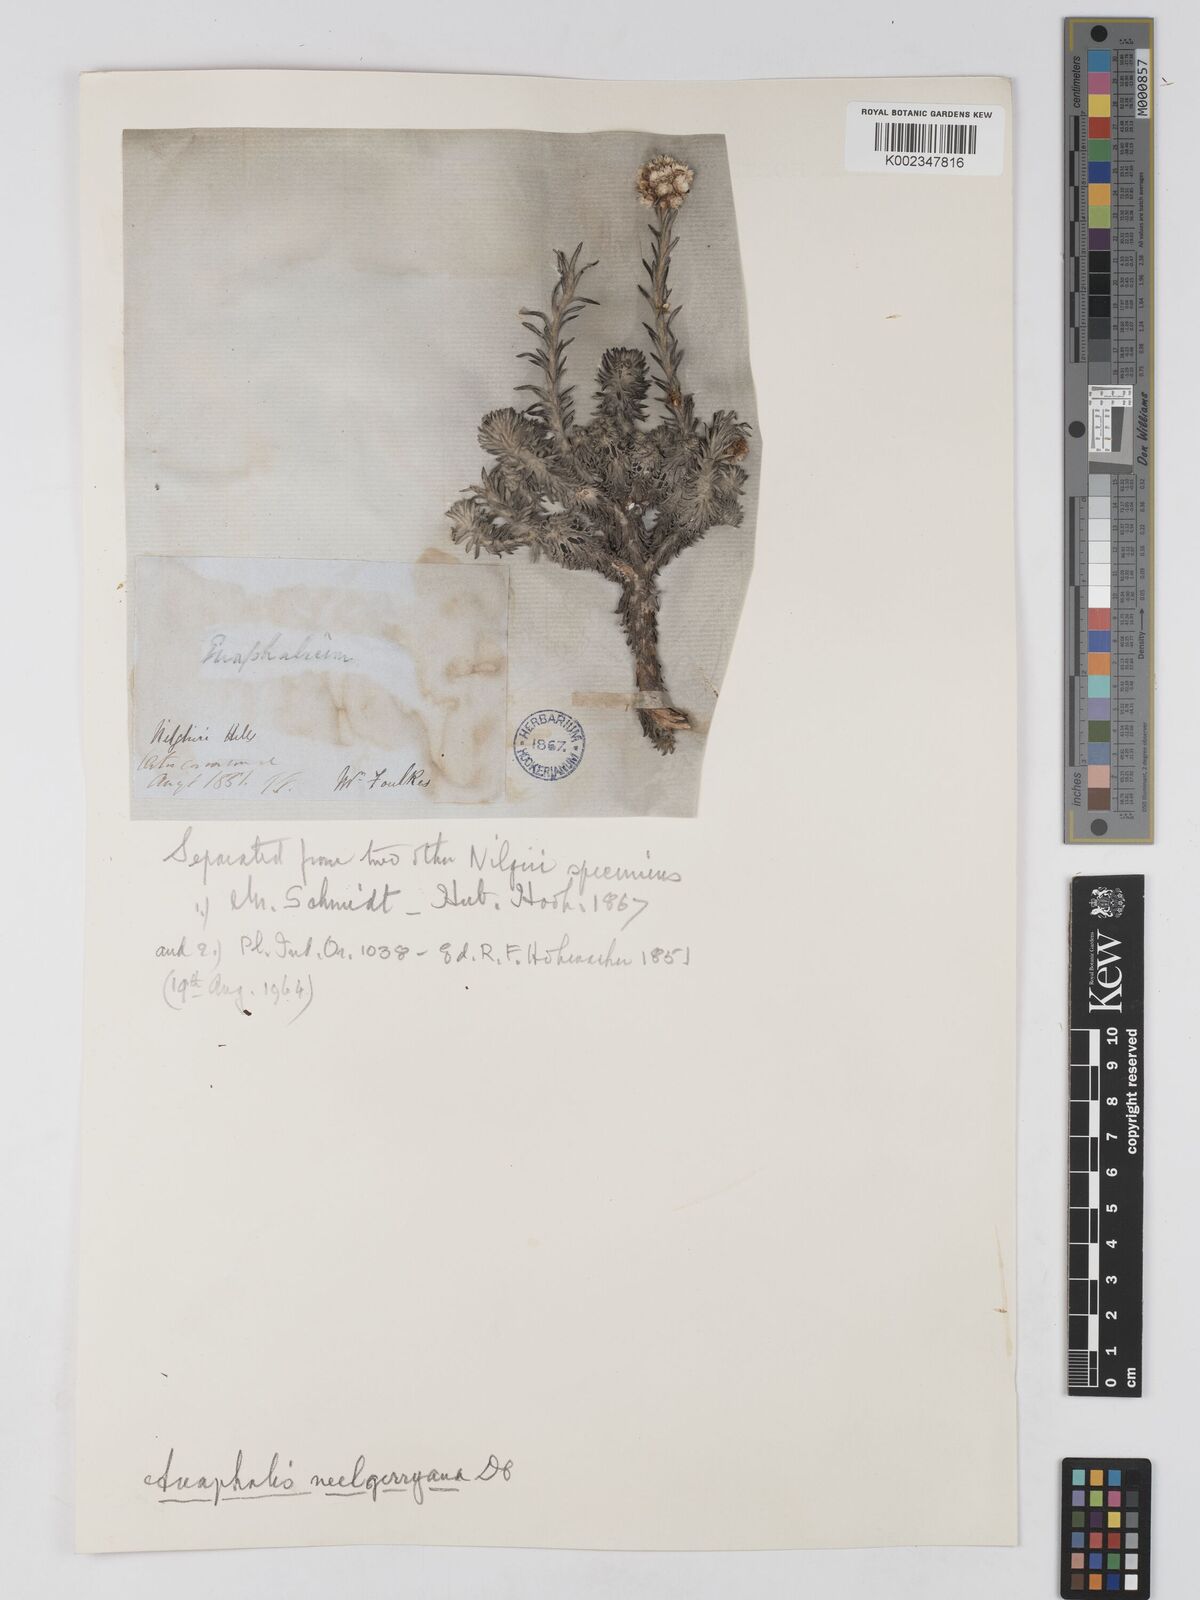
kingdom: Plantae
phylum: Tracheophyta
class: Magnoliopsida
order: Asterales
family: Asteraceae
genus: Anaphalis
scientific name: Anaphalis neelgerryana
